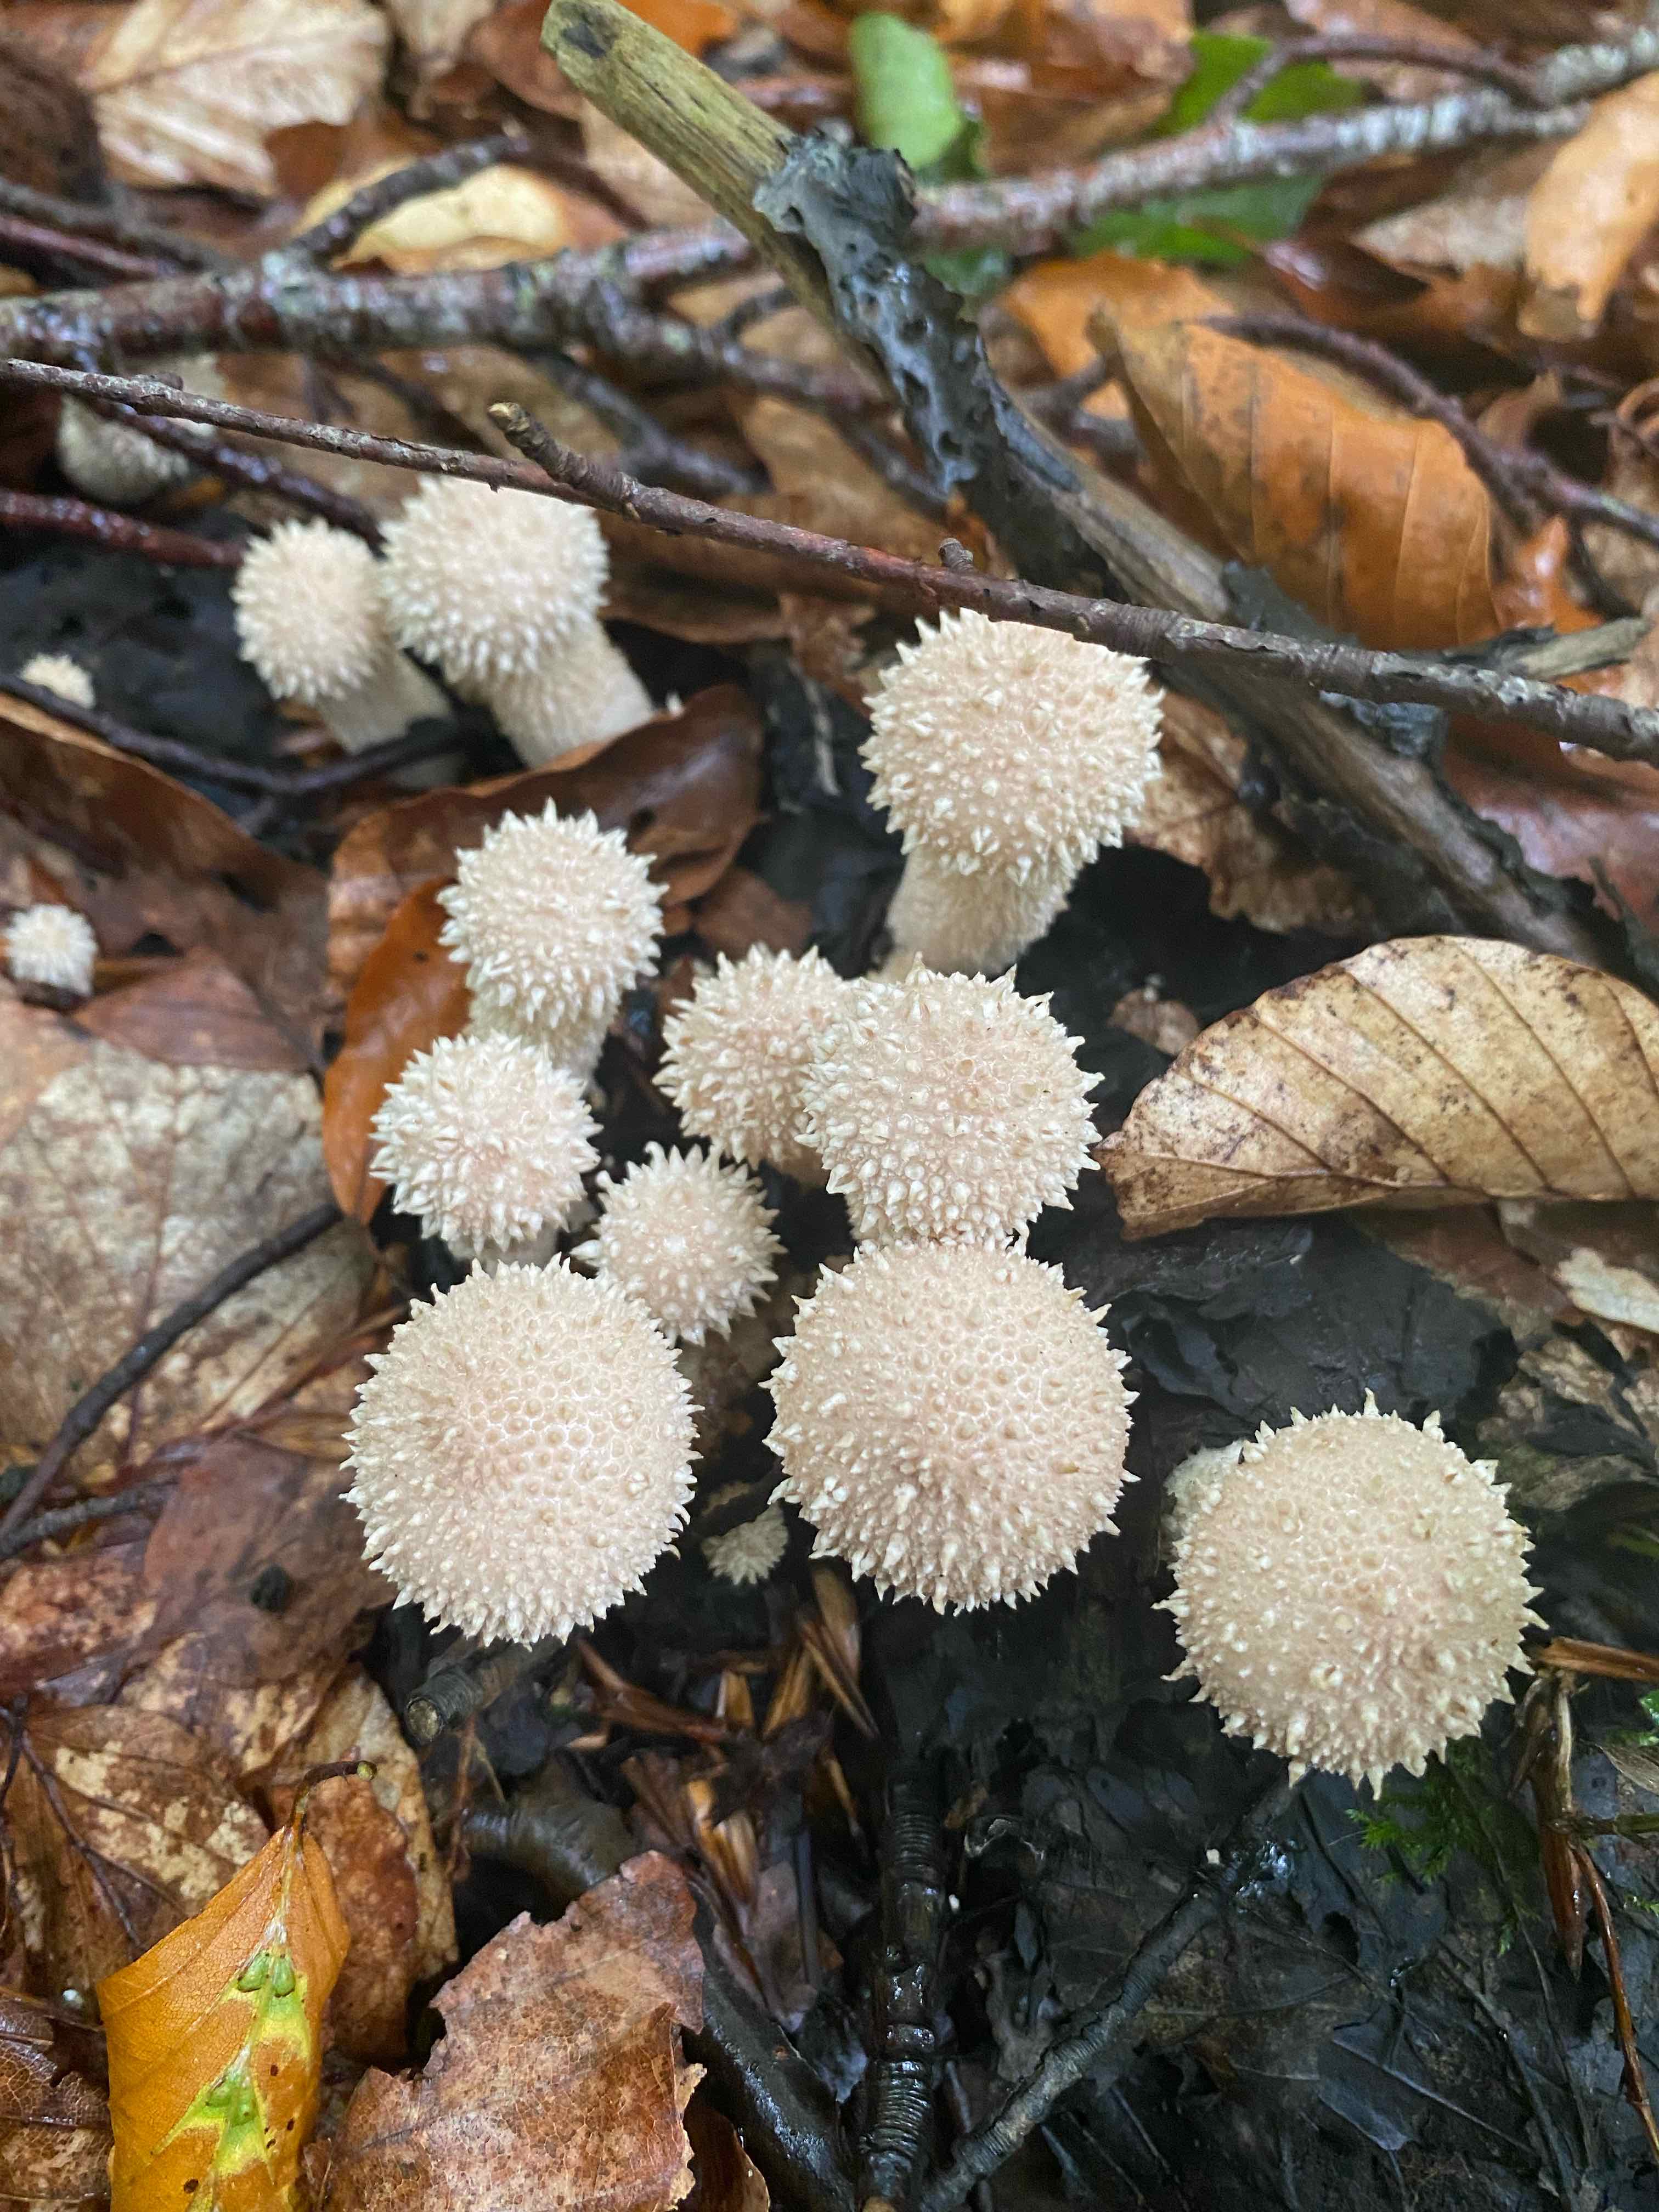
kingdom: Fungi
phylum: Basidiomycota
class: Agaricomycetes
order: Agaricales
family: Lycoperdaceae
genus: Lycoperdon
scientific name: Lycoperdon perlatum
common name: krystal-støvbold
